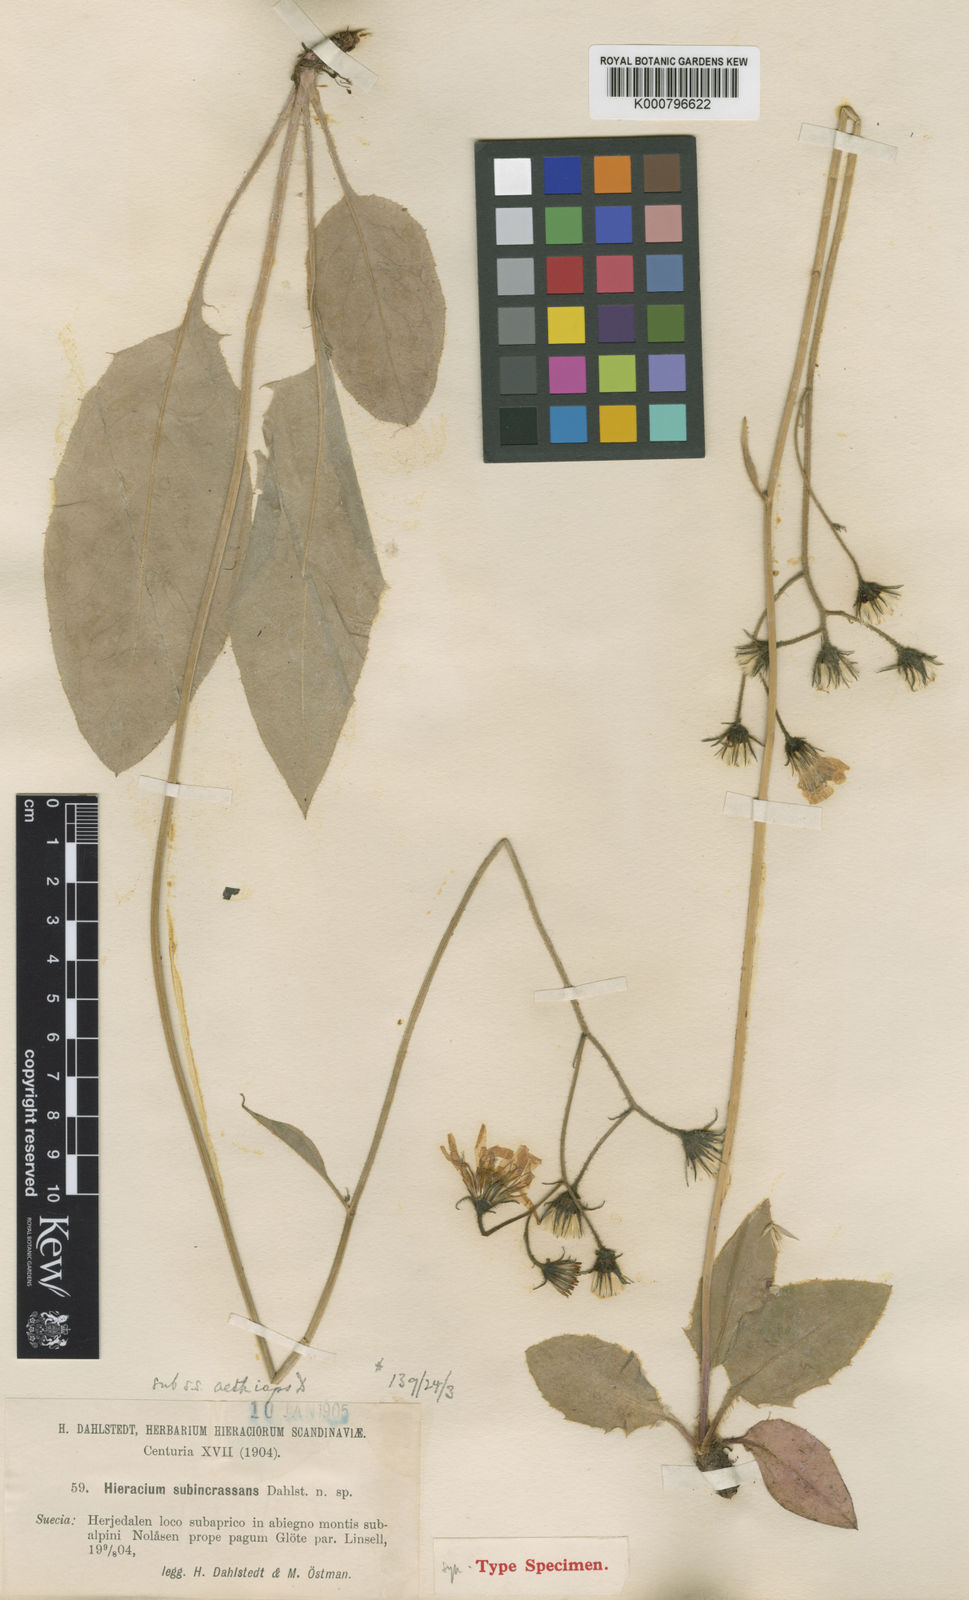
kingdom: Plantae
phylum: Tracheophyta
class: Magnoliopsida
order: Asterales
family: Asteraceae
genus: Hieracium
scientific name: Hieracium murorum
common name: Wall hawkweed
